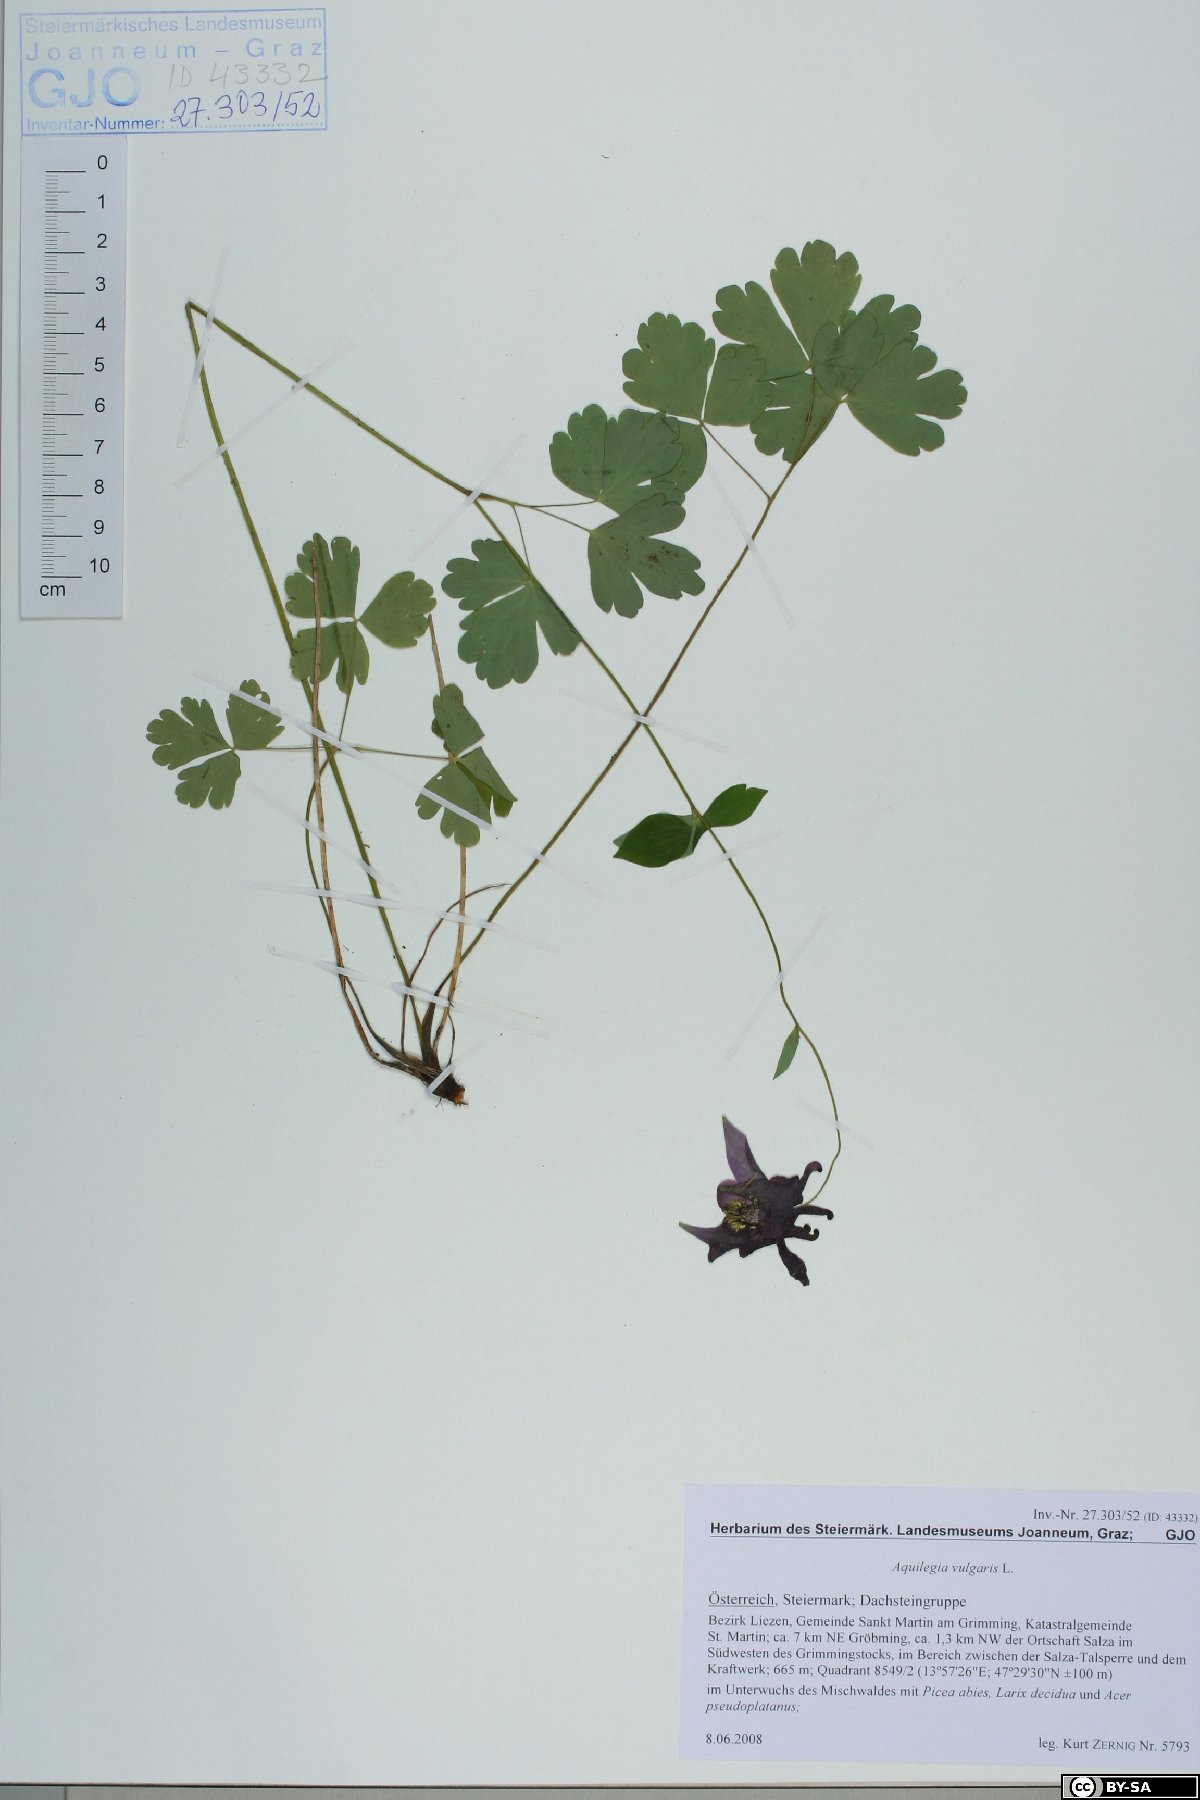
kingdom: Plantae
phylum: Tracheophyta
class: Magnoliopsida
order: Ranunculales
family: Ranunculaceae
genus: Aquilegia
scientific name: Aquilegia vulgaris
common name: Columbine
